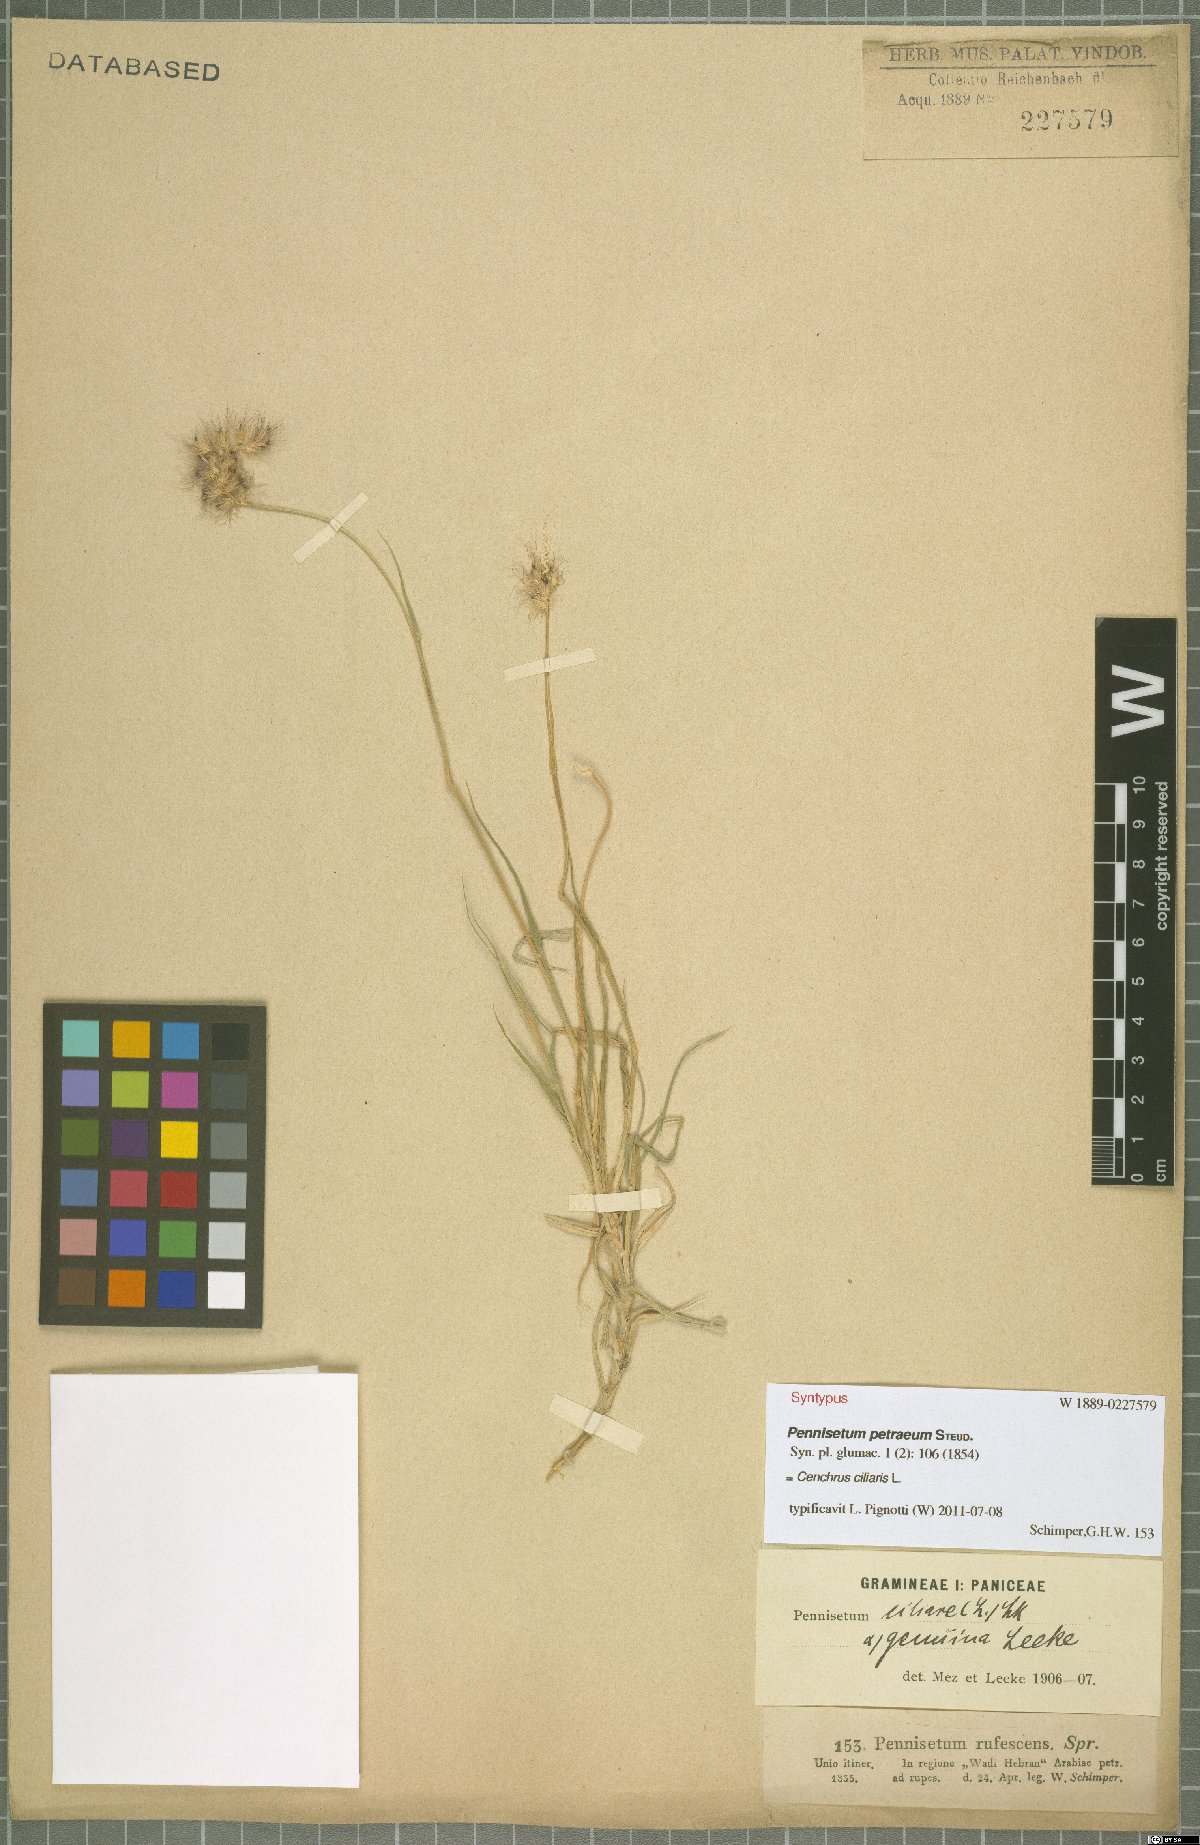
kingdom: Plantae
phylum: Tracheophyta
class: Liliopsida
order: Poales
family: Poaceae
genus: Cenchrus
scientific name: Cenchrus ciliaris
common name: Buffelgrass
